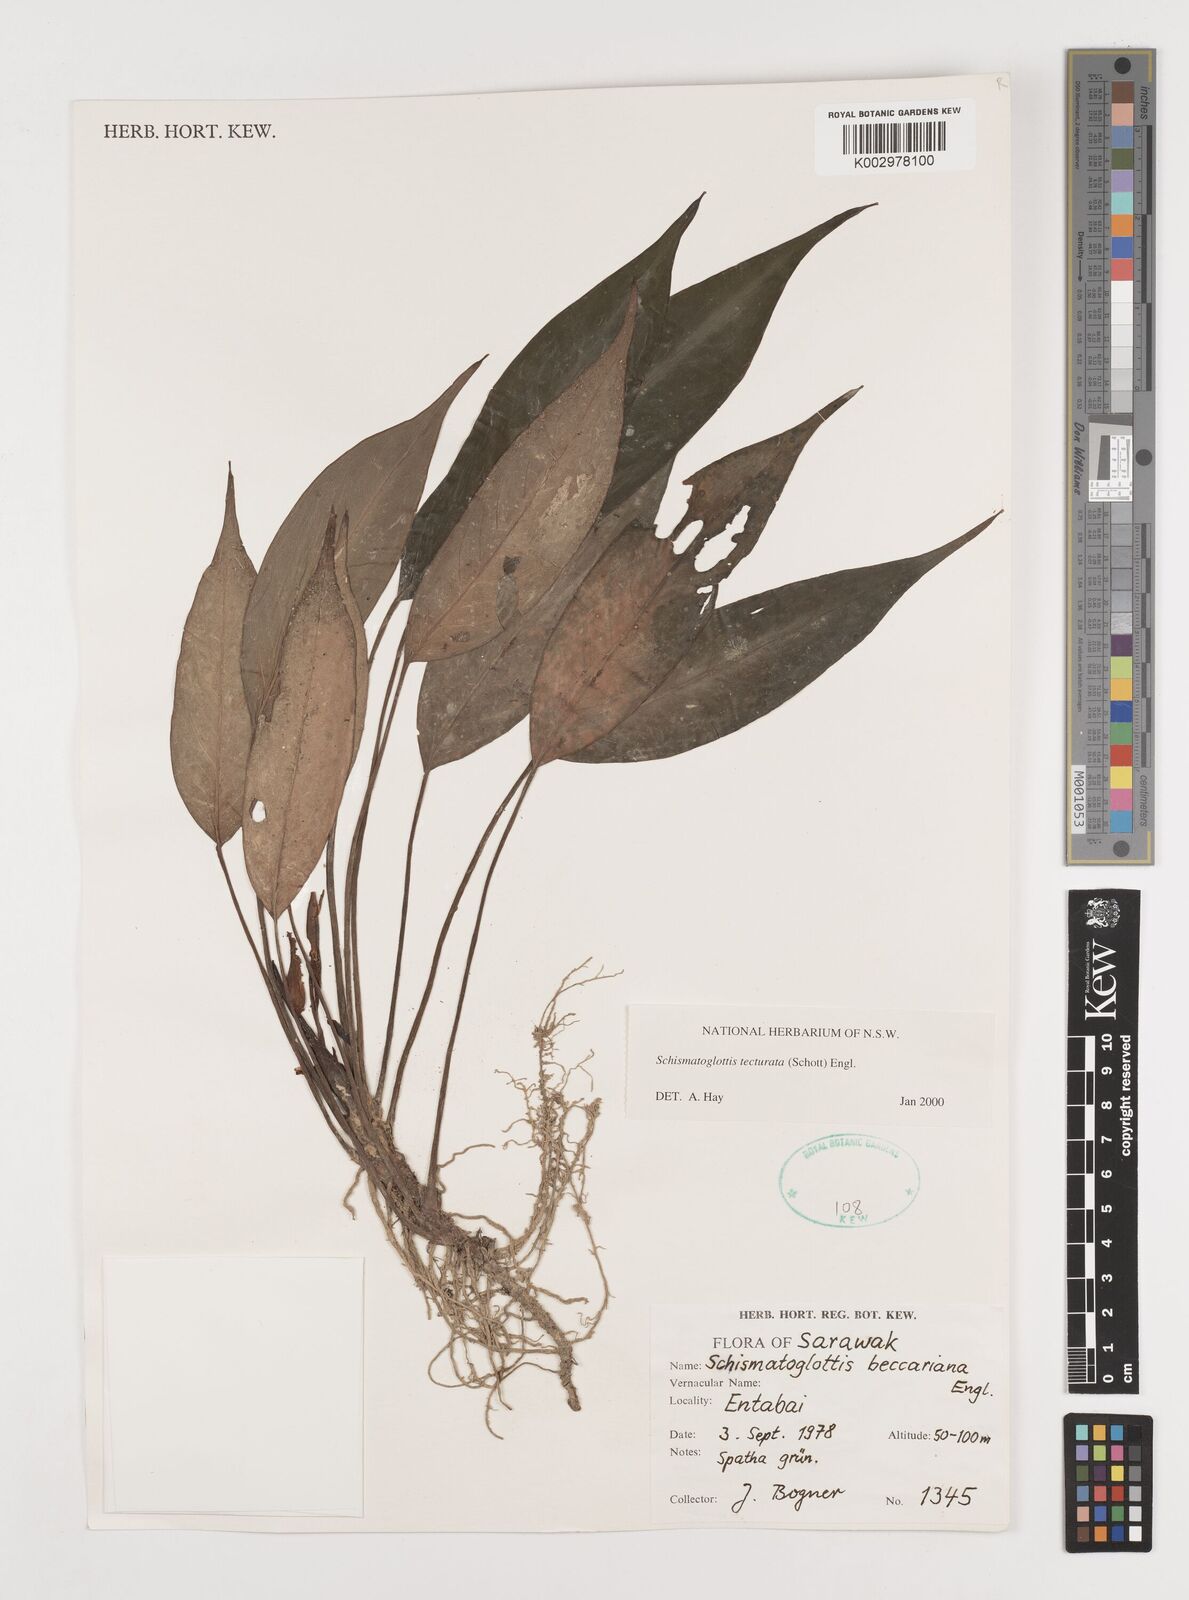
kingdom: Plantae
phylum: Tracheophyta
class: Liliopsida
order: Zingiberales
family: Costaceae
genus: Colobogynium
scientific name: Colobogynium variegatum
